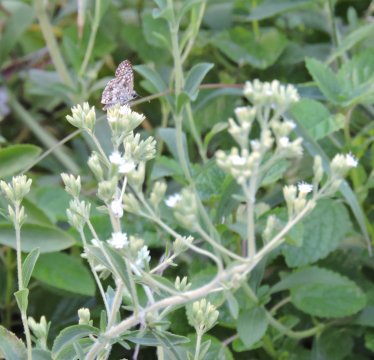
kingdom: Animalia
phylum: Arthropoda
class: Insecta
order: Lepidoptera
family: Hesperiidae
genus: Pyrgus
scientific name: Pyrgus
